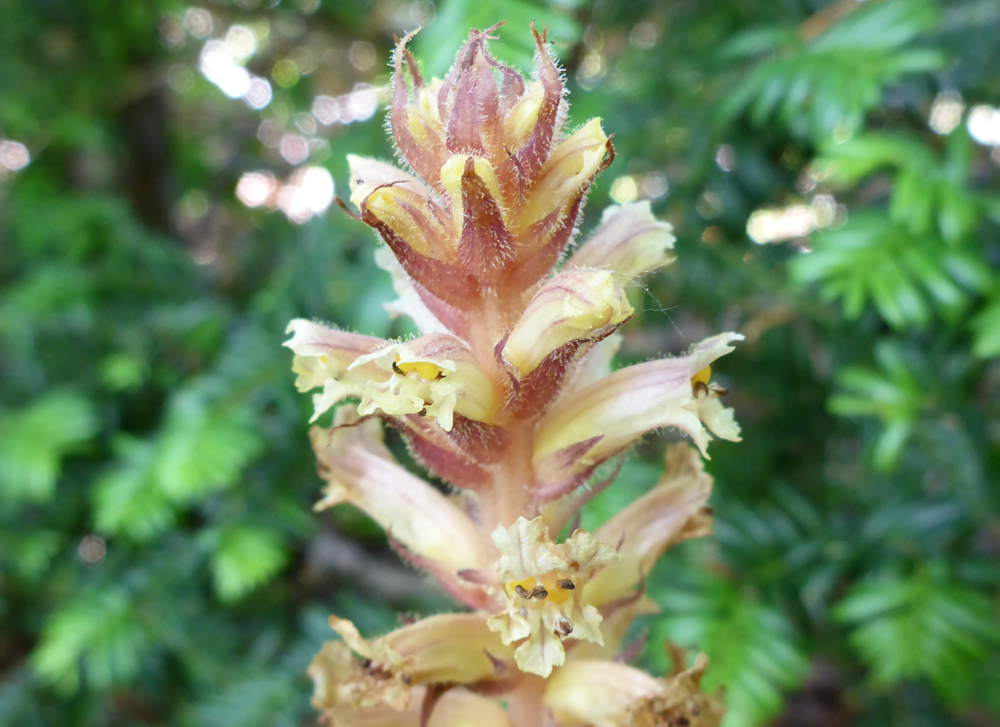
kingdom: Plantae
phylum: Tracheophyta
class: Magnoliopsida
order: Lamiales
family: Orobanchaceae
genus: Orobanche
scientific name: Orobanche hederae
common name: Ivy broomrape
